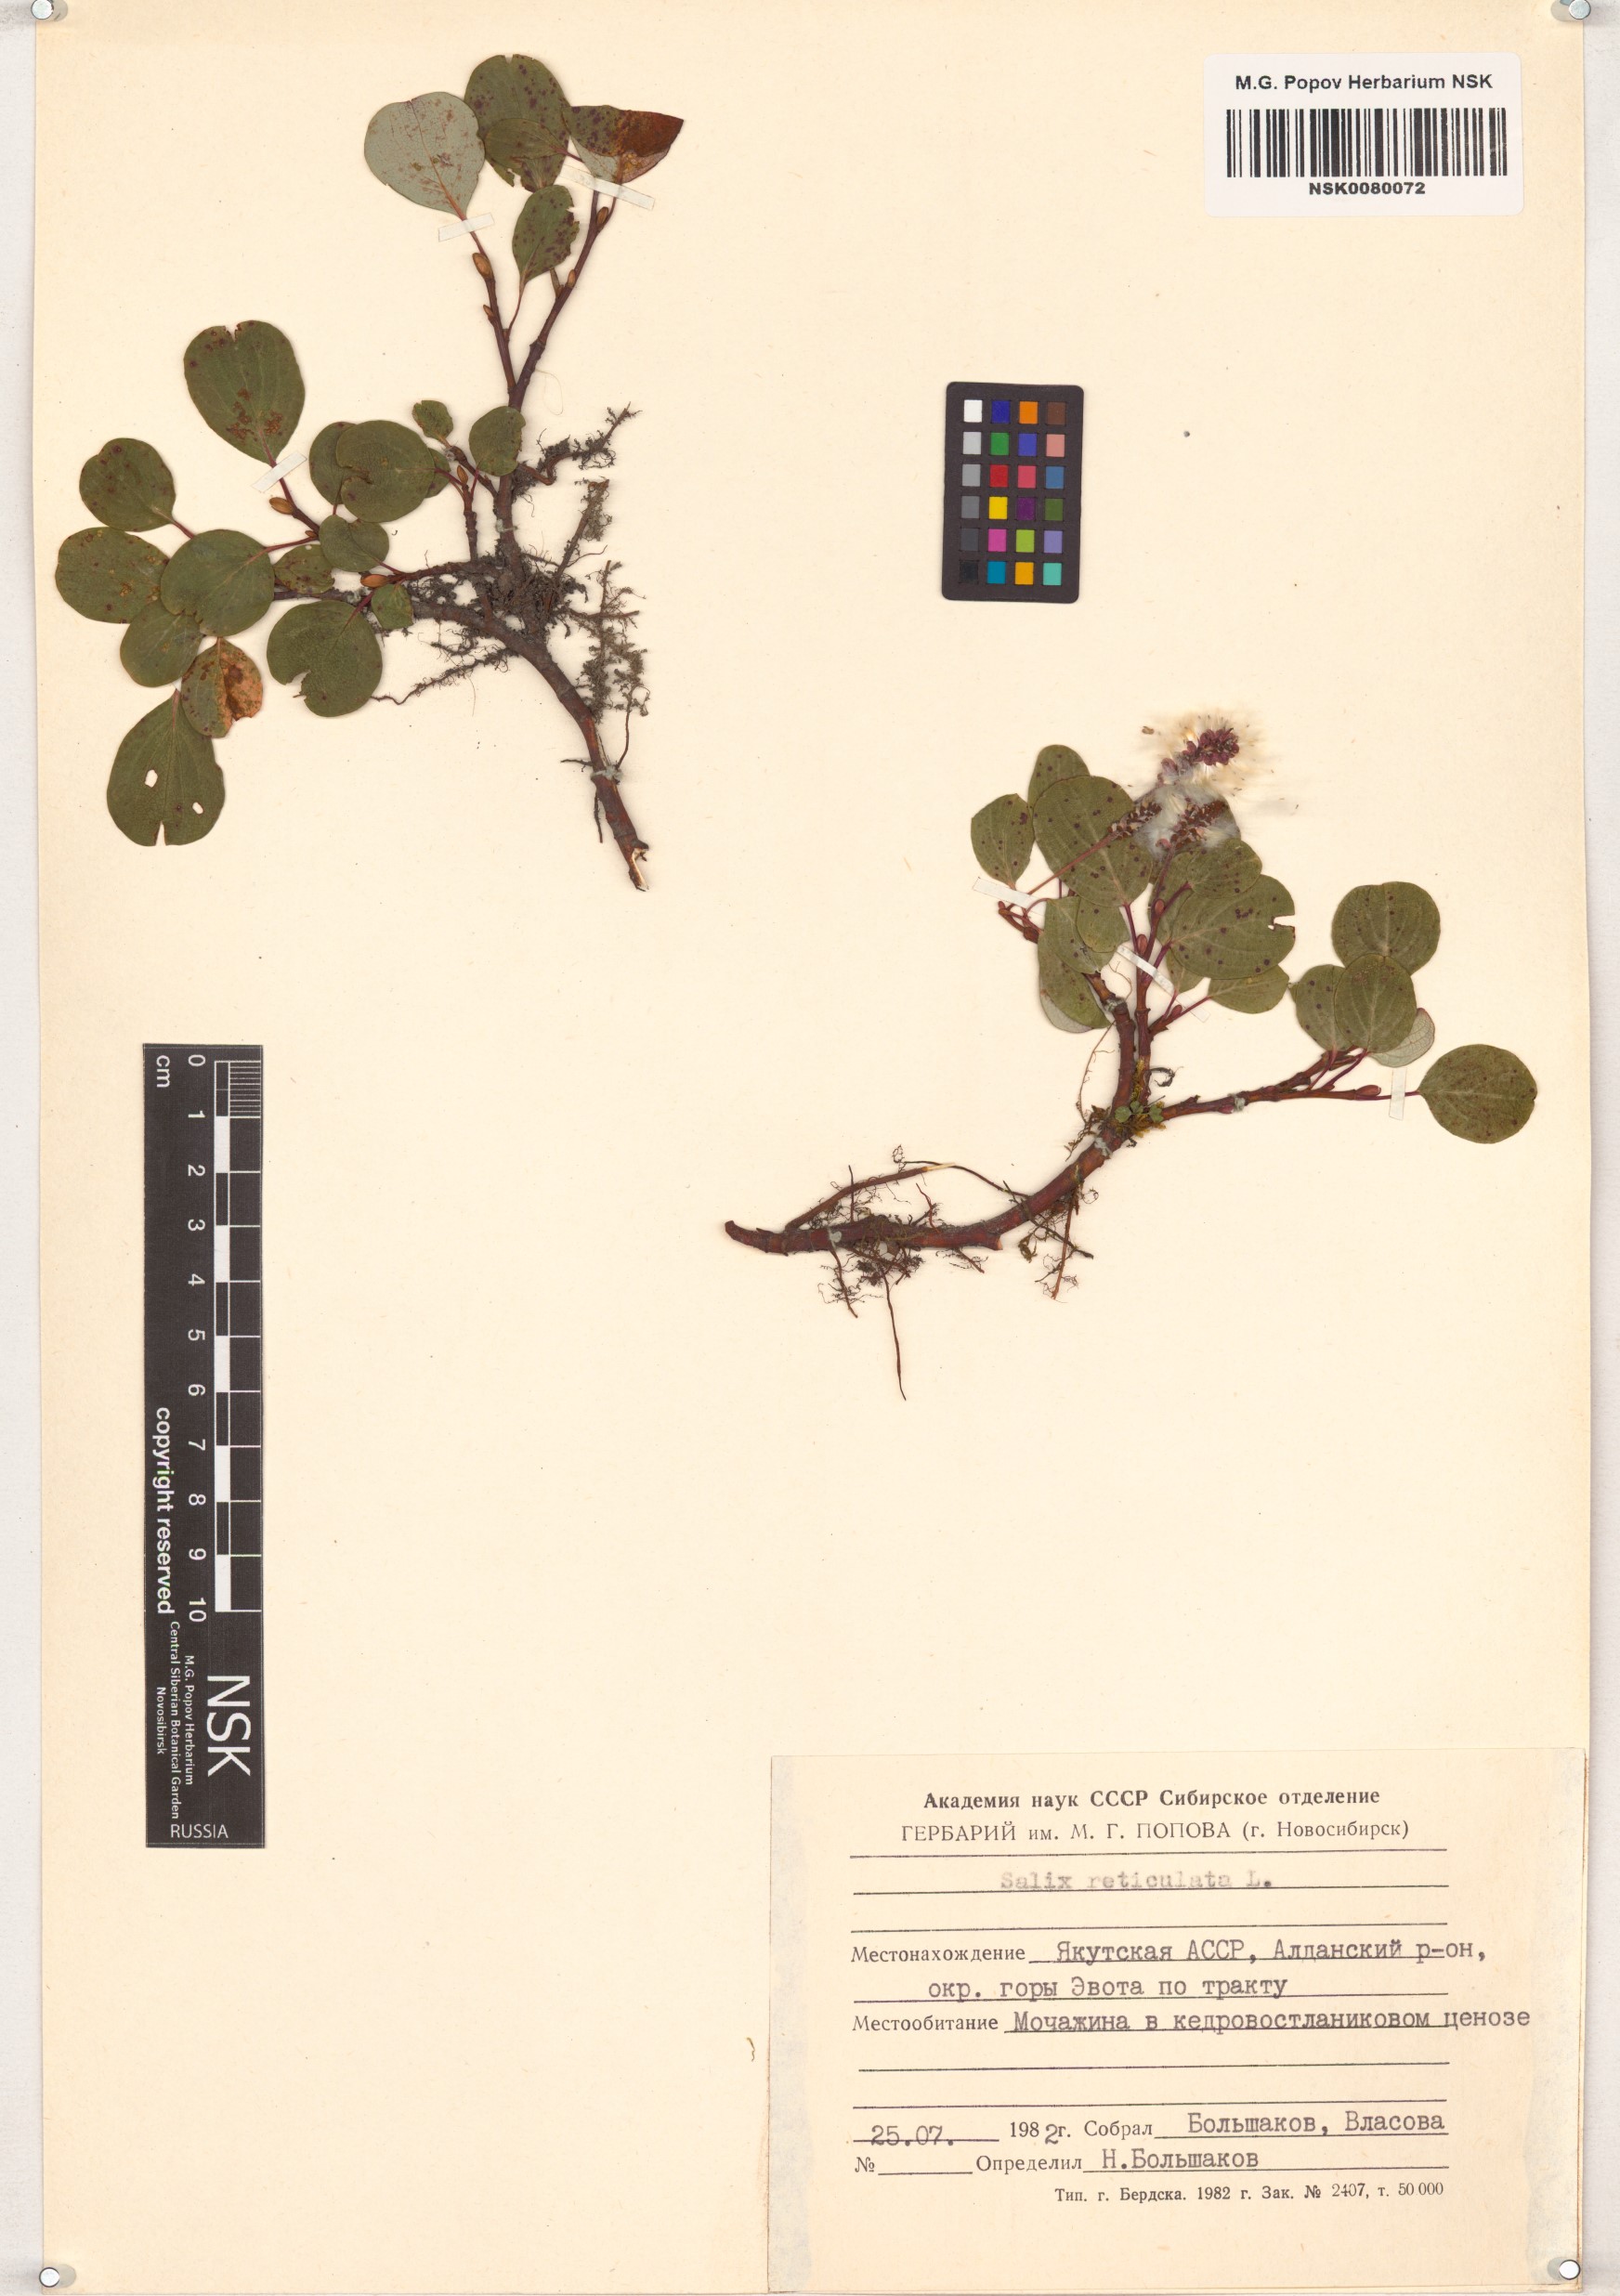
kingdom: Plantae
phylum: Tracheophyta
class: Magnoliopsida
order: Malpighiales
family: Salicaceae
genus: Salix
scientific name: Salix reticulata
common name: Net-leaved willow
